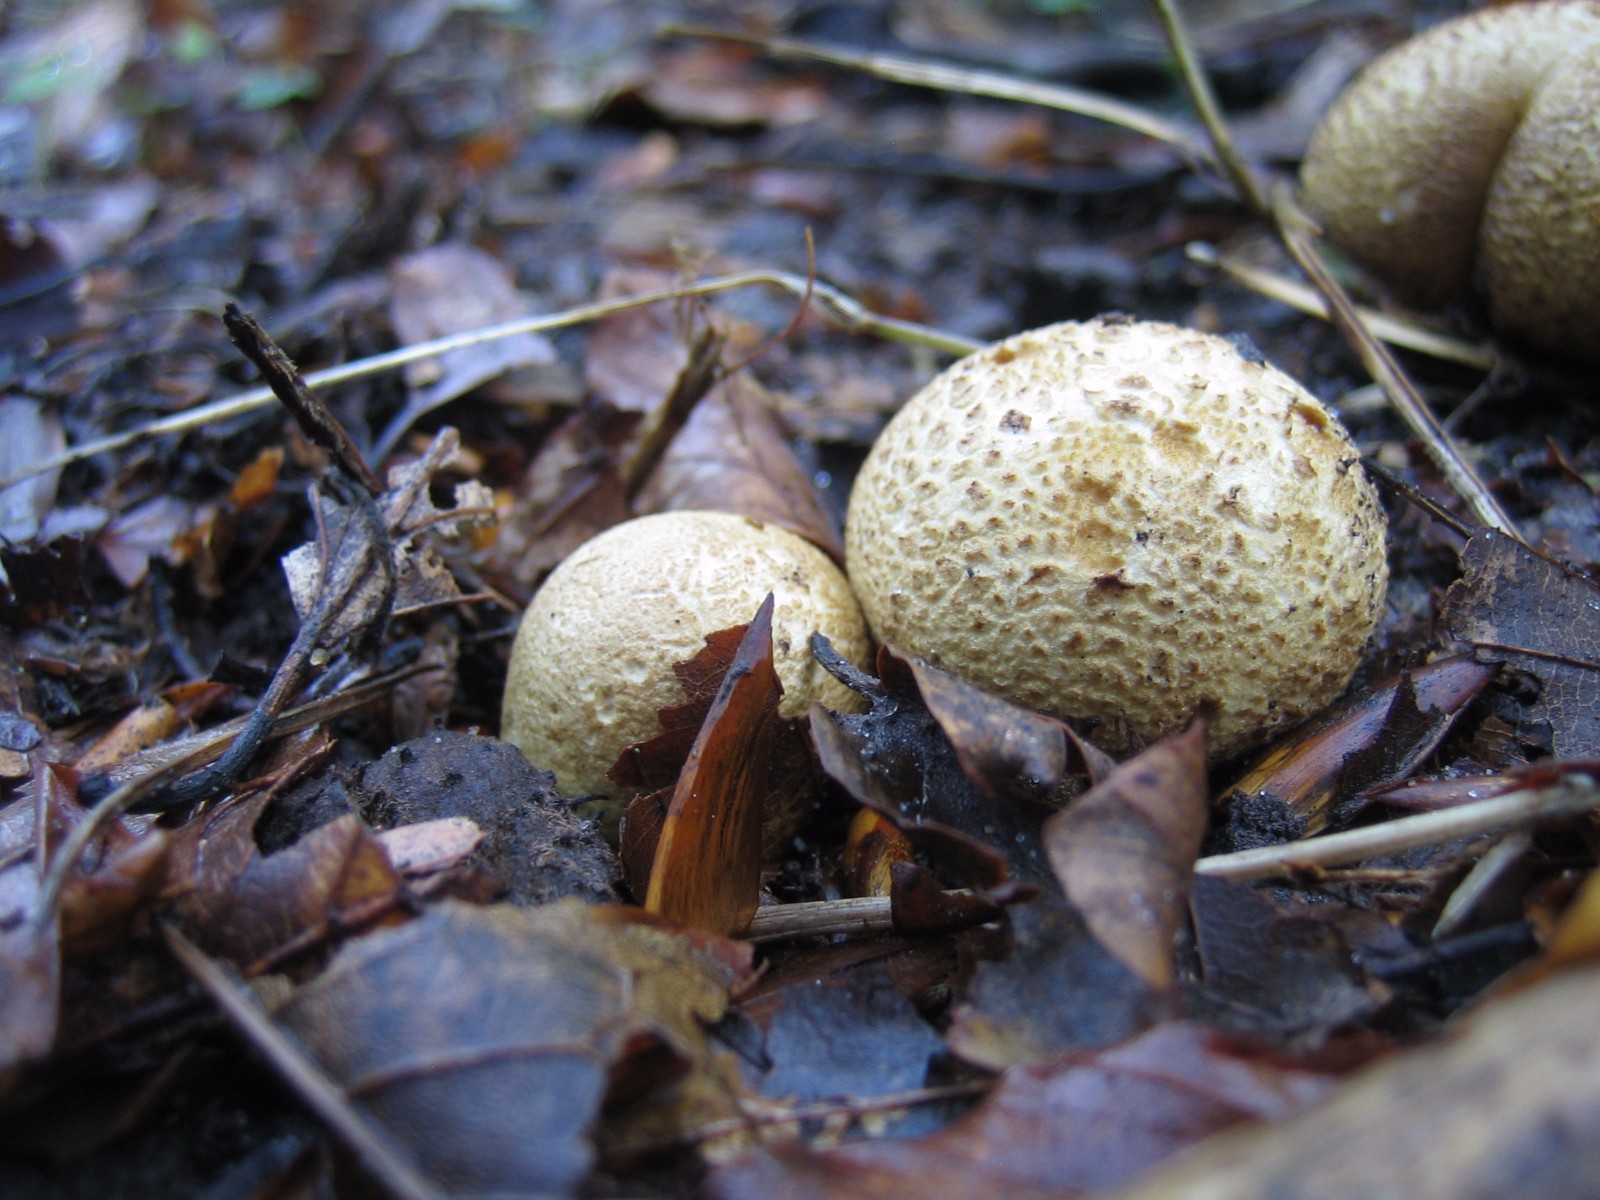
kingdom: Fungi
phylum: Basidiomycota
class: Agaricomycetes
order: Boletales
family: Sclerodermataceae
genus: Scleroderma
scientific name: Scleroderma citrinum
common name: almindelig bruskbold
